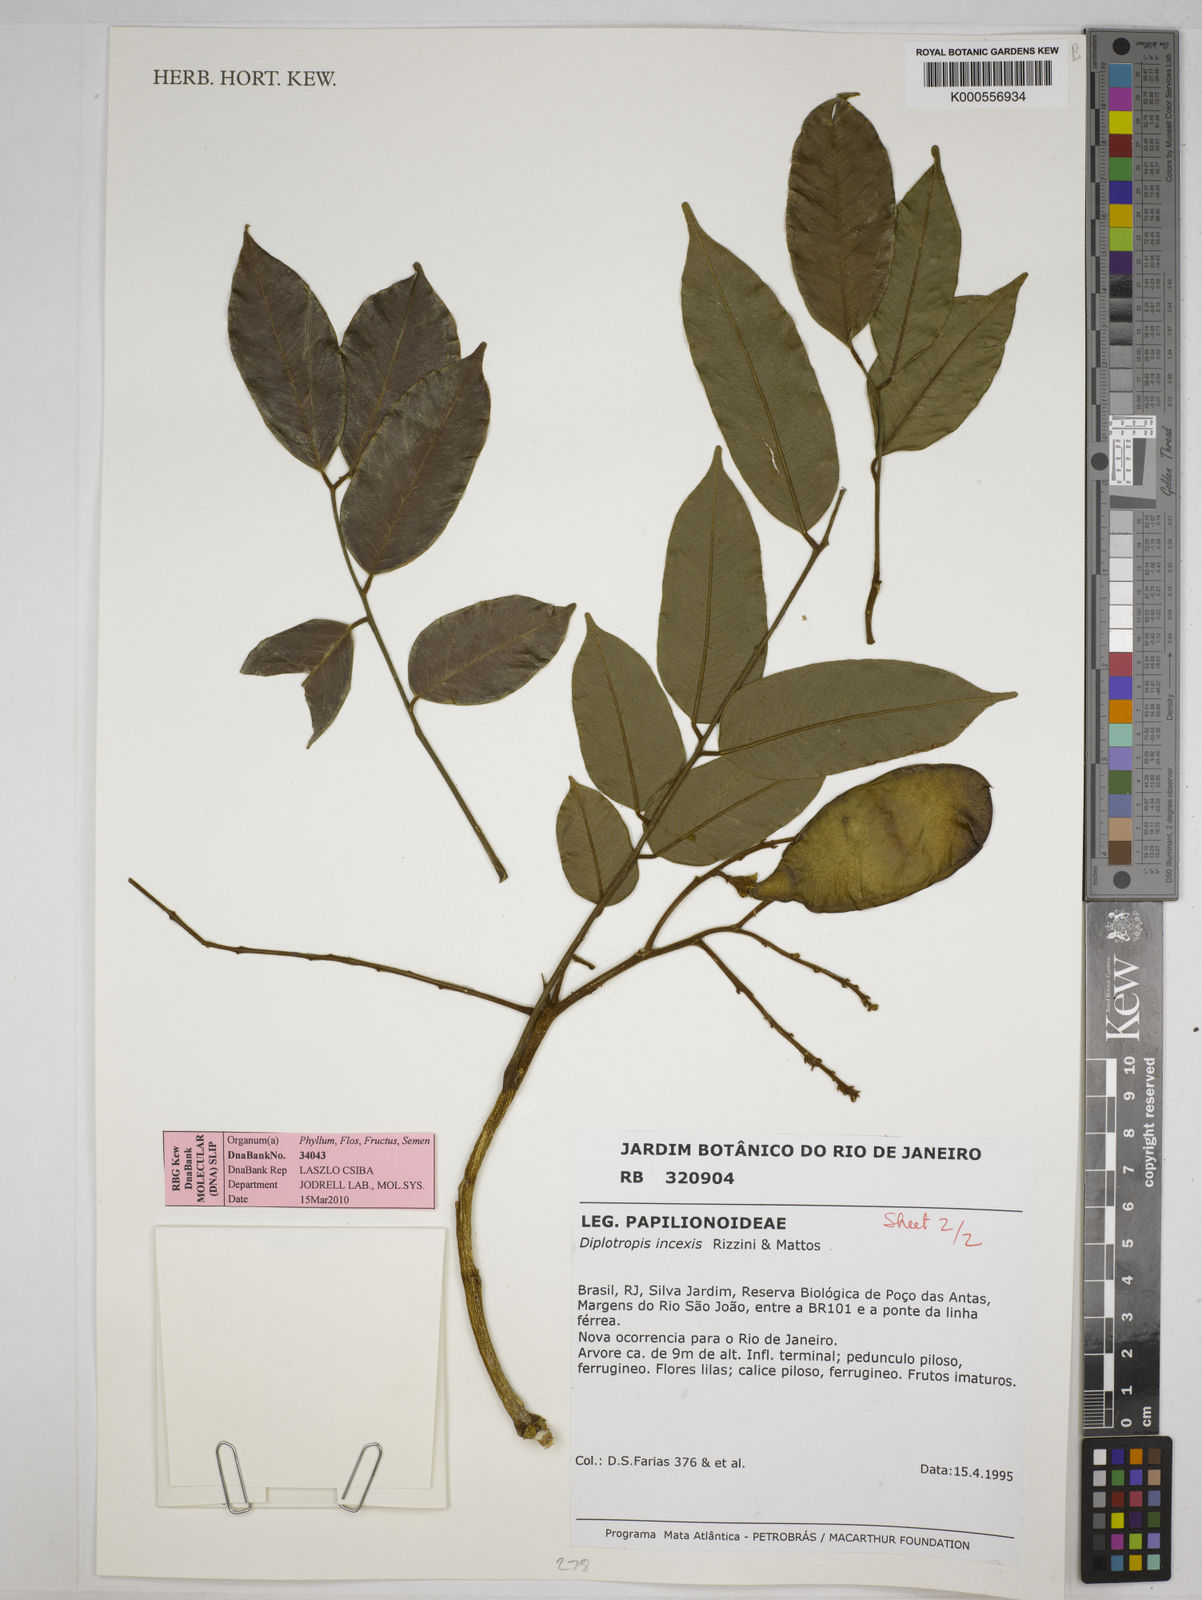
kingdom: Plantae
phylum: Tracheophyta
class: Magnoliopsida
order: Fabales
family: Fabaceae
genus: Diplotropis
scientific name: Diplotropis incexis
